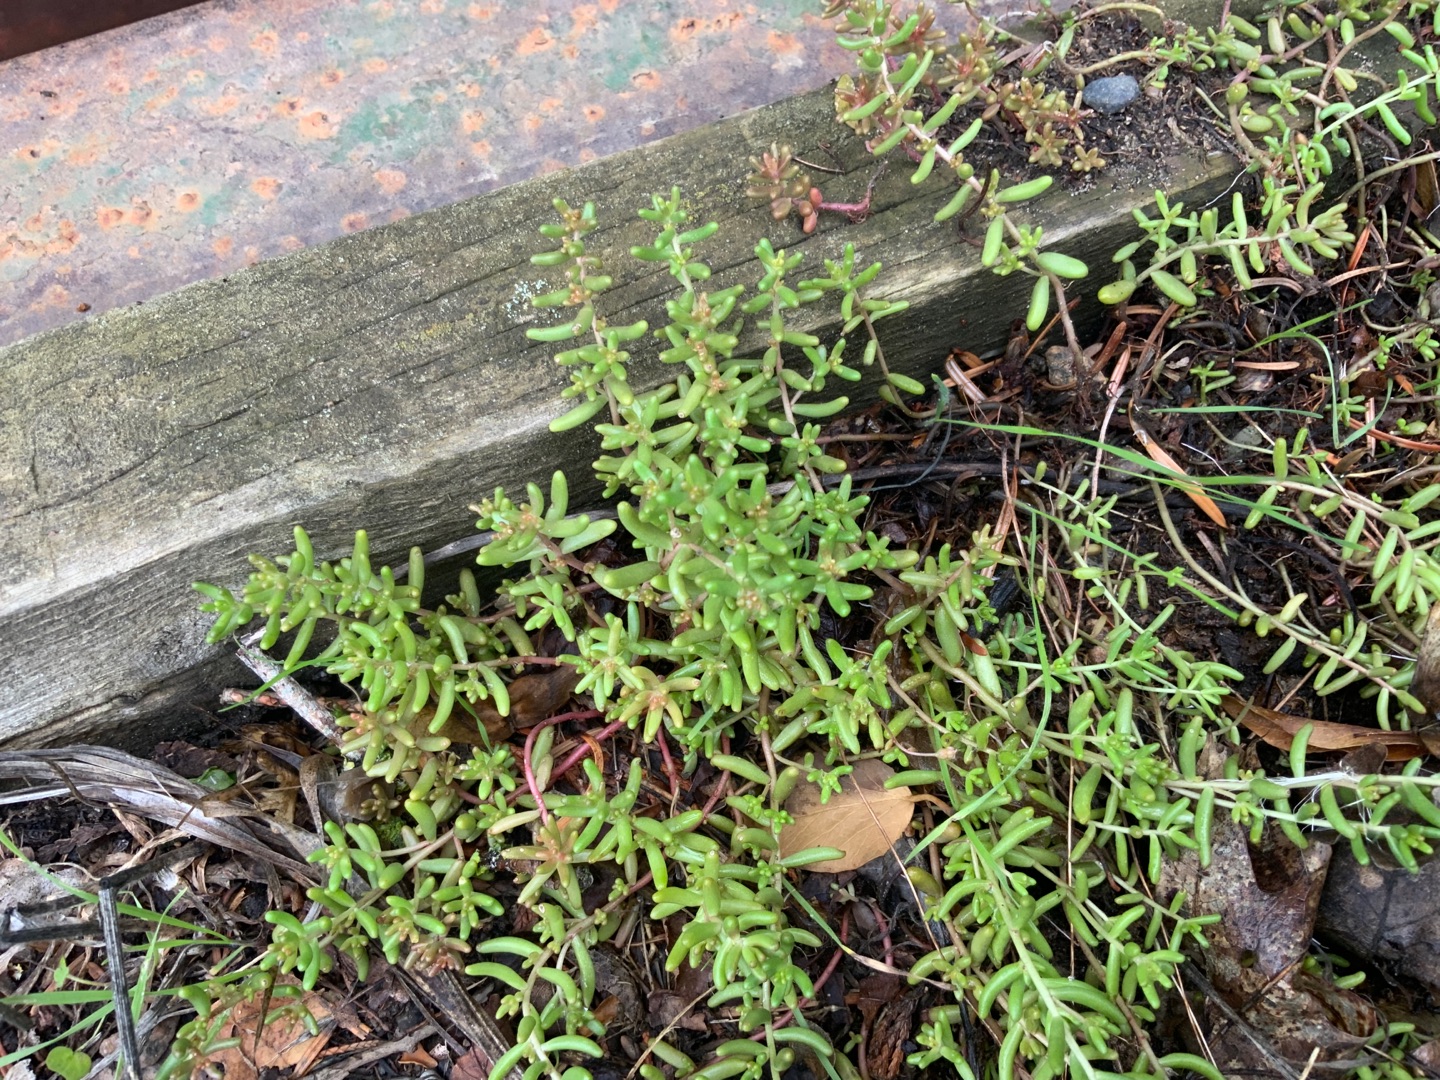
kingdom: Plantae
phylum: Tracheophyta
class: Magnoliopsida
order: Saxifragales
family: Crassulaceae
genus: Sedum
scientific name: Sedum album
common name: Hvid stenurt
